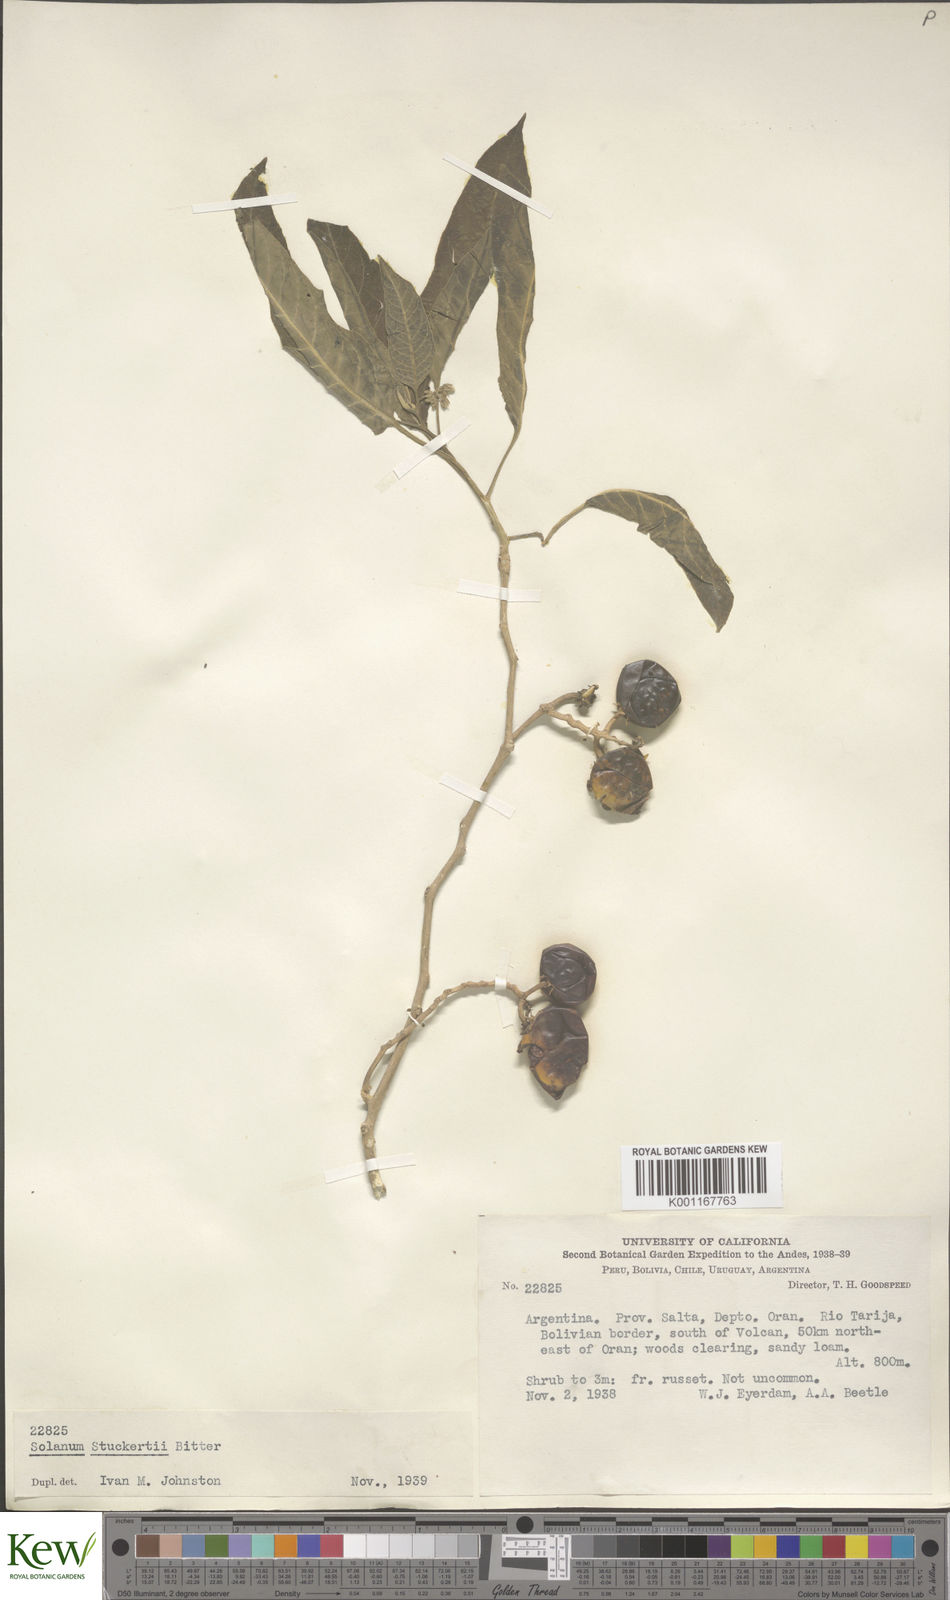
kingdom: Plantae
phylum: Tracheophyta
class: Magnoliopsida
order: Solanales
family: Solanaceae
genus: Solanum
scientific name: Solanum stuckertii
